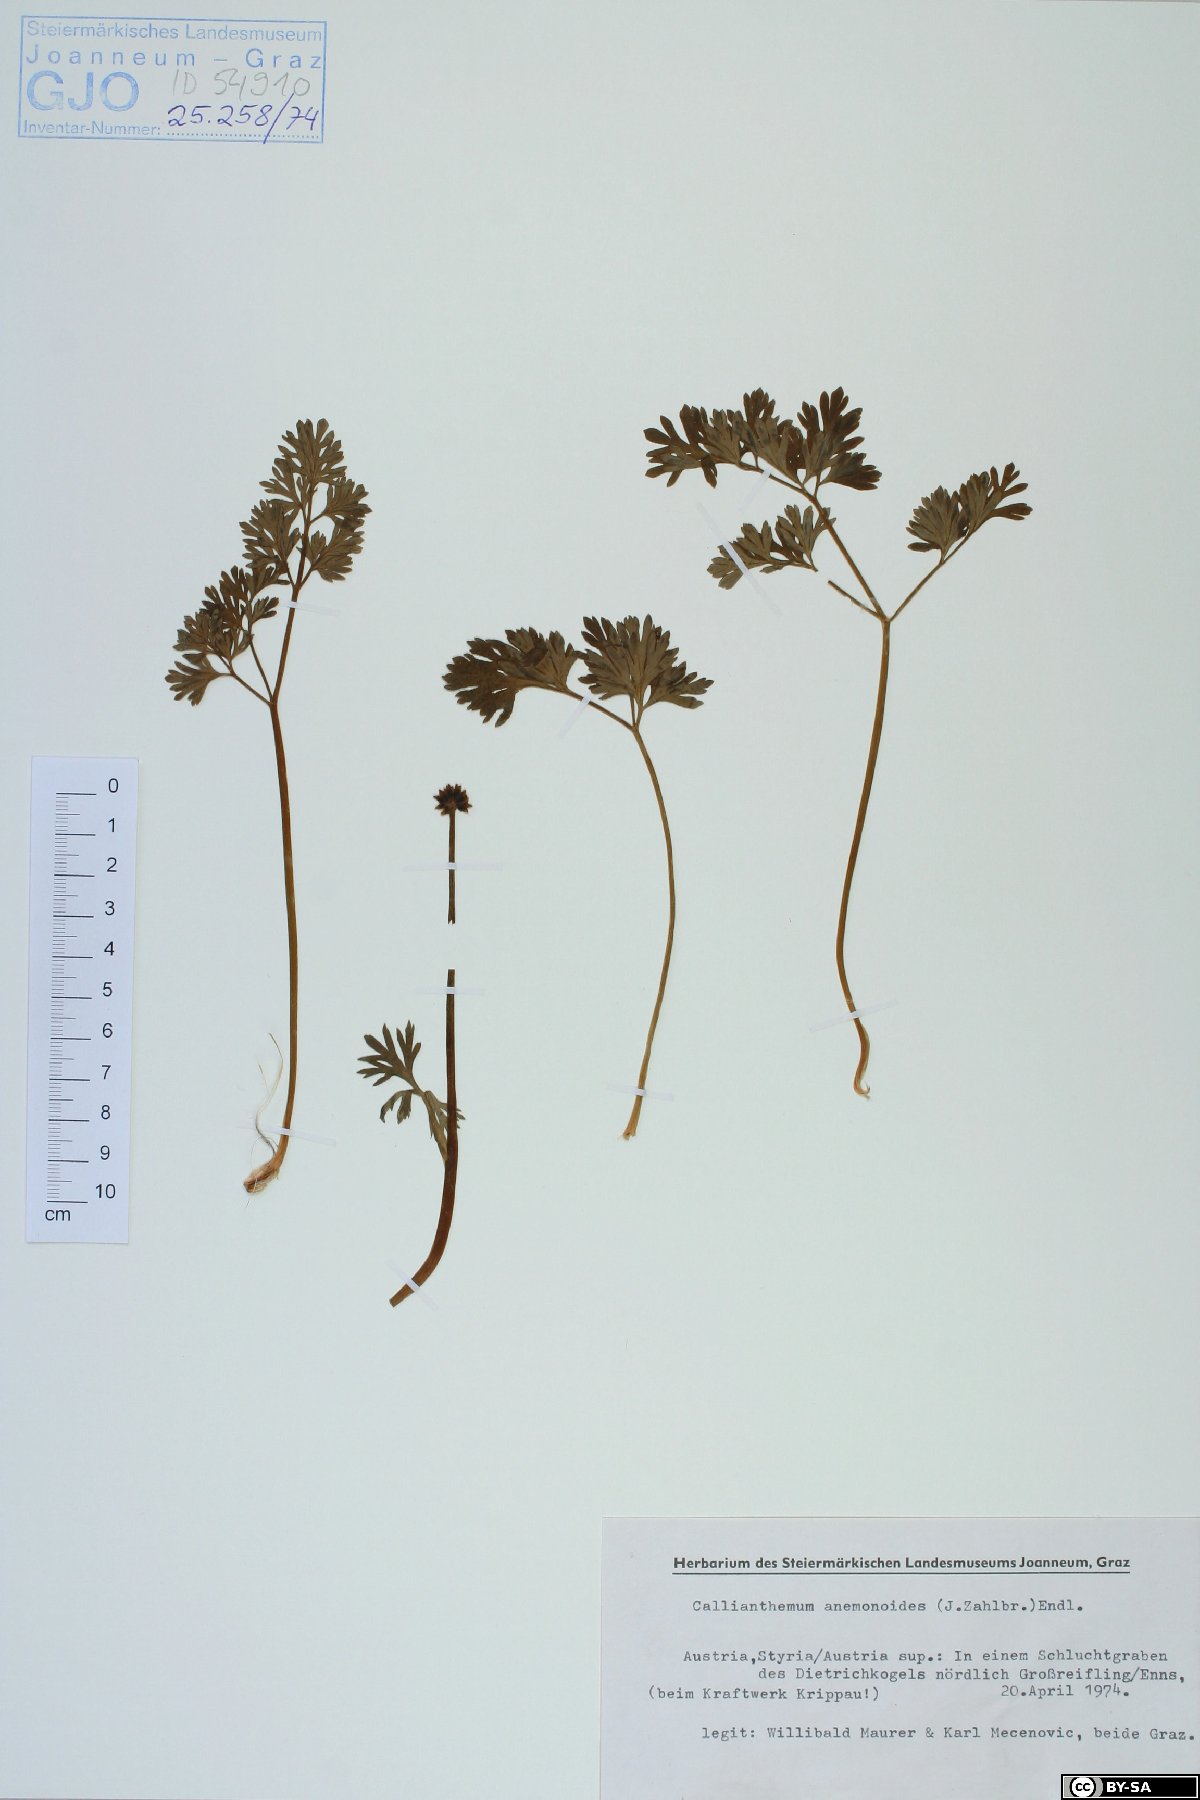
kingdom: Plantae
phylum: Tracheophyta
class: Magnoliopsida
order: Ranunculales
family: Ranunculaceae
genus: Callianthemum
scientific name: Callianthemum anemonoides
